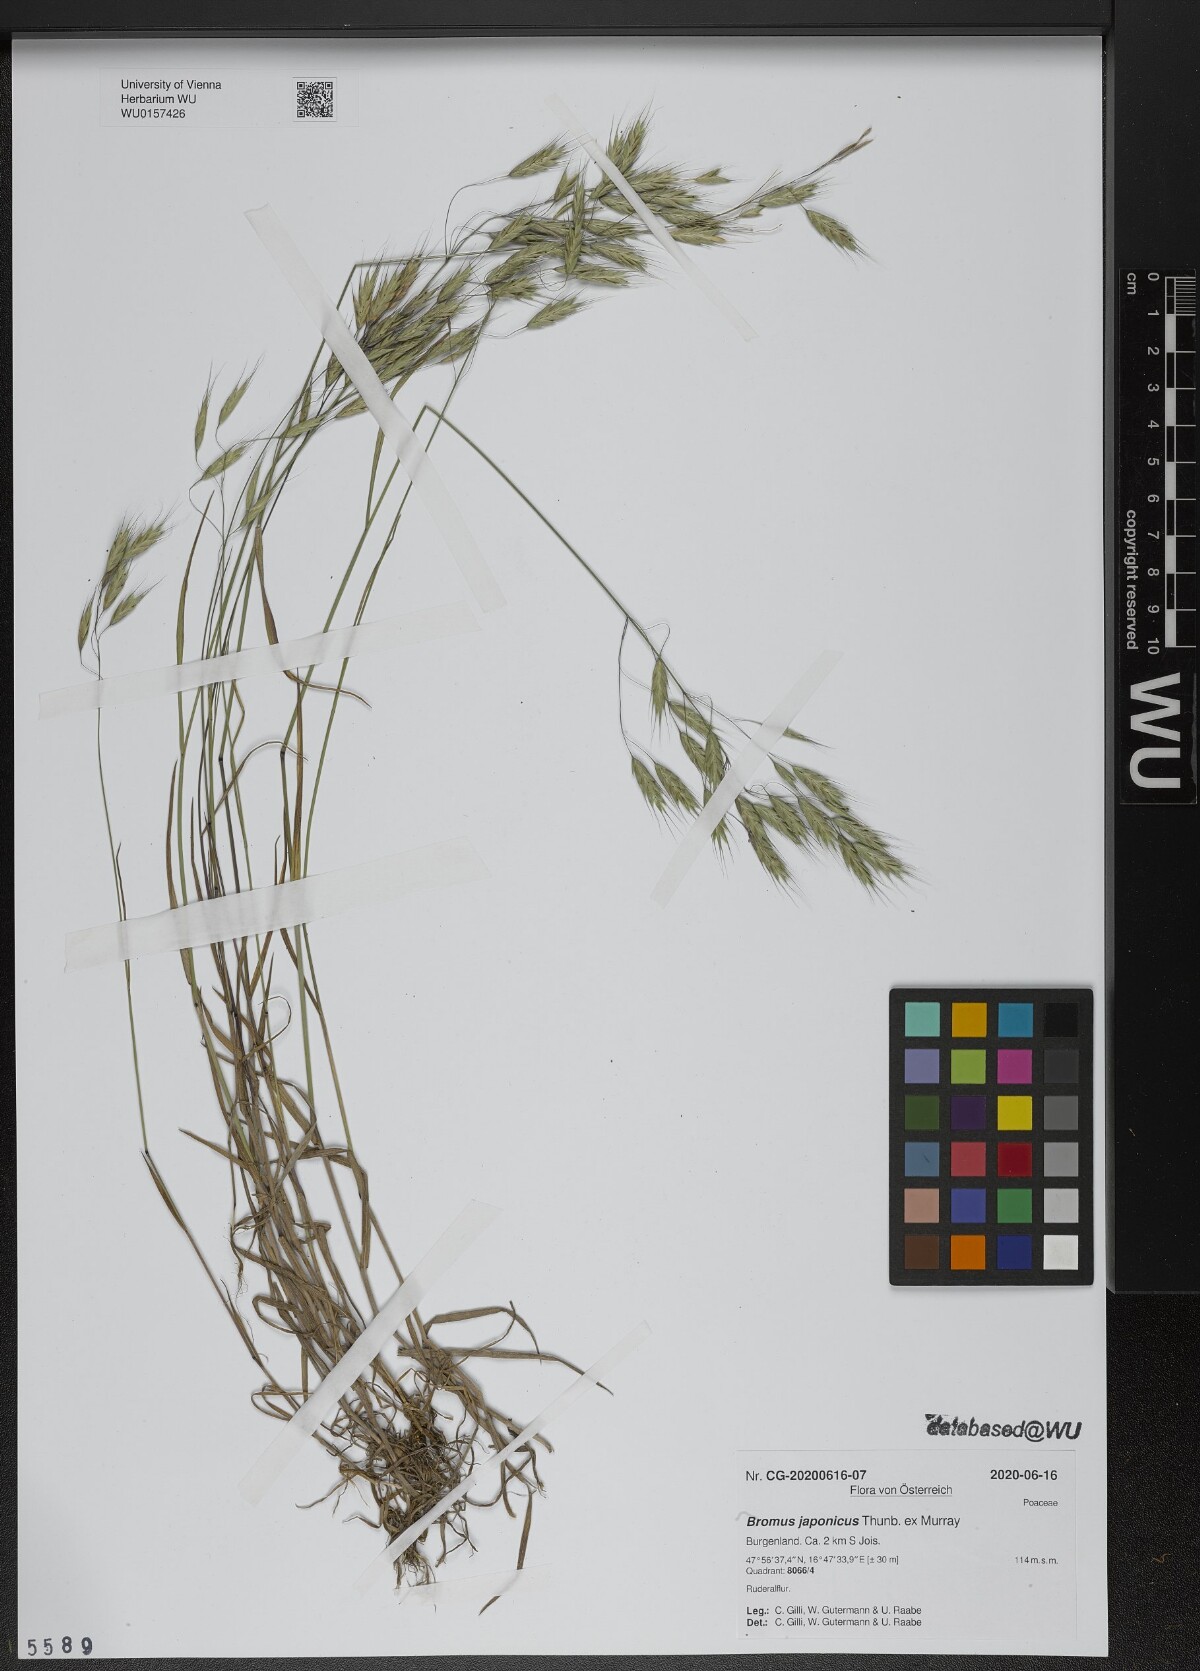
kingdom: Plantae
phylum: Tracheophyta
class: Liliopsida
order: Poales
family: Poaceae
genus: Bromus
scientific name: Bromus japonicus
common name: Japanese brome
